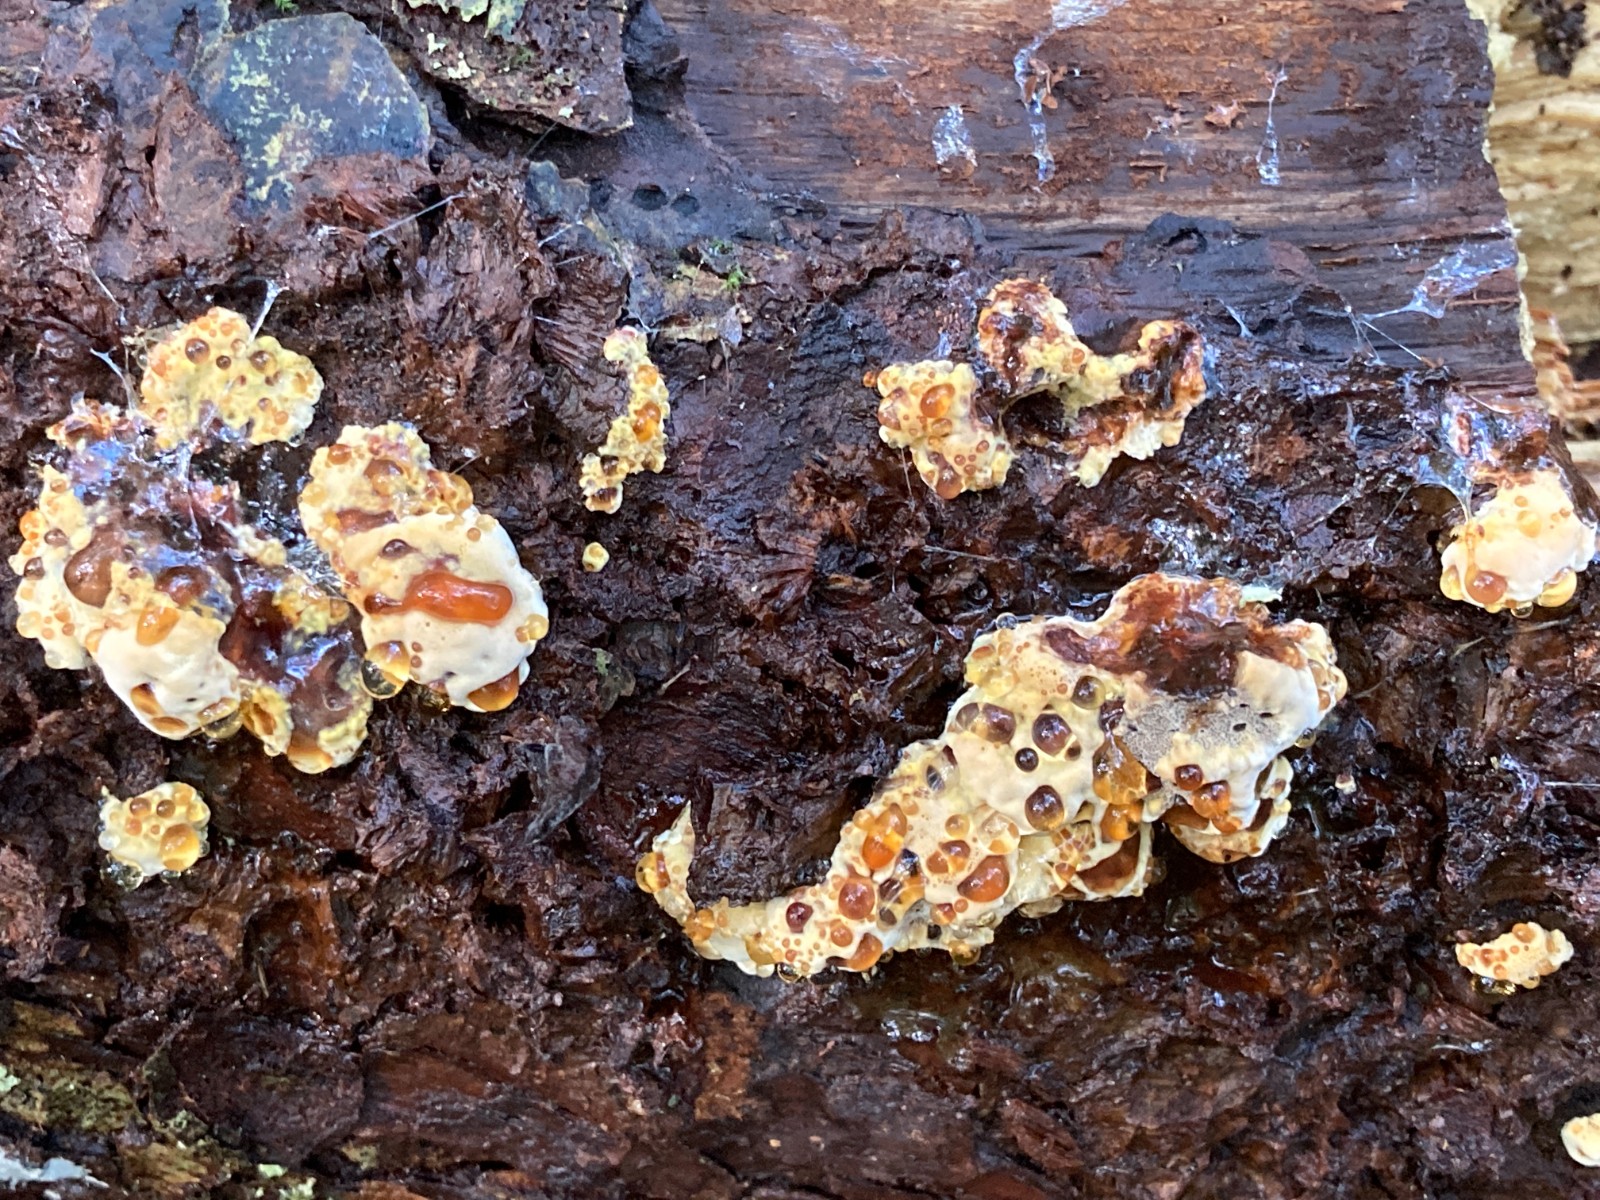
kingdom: Fungi
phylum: Basidiomycota
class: Agaricomycetes
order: Hymenochaetales
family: Hymenochaetaceae
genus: Xanthoporia
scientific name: Xanthoporia radiata
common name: elle-spejlporesvamp
